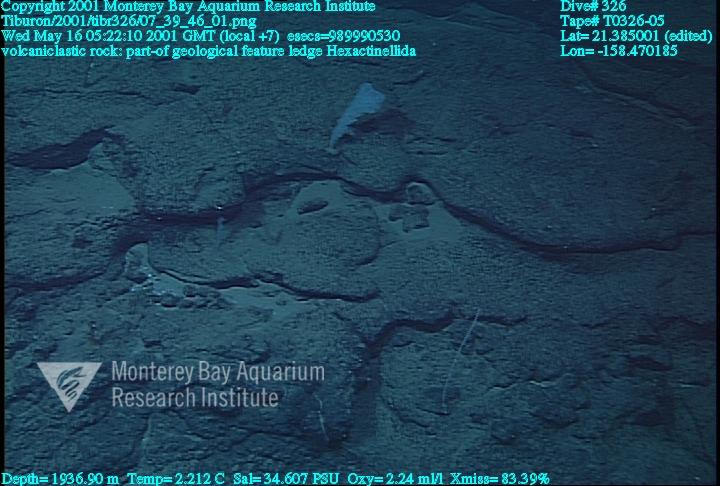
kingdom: Animalia
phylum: Porifera
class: Hexactinellida
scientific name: Hexactinellida
